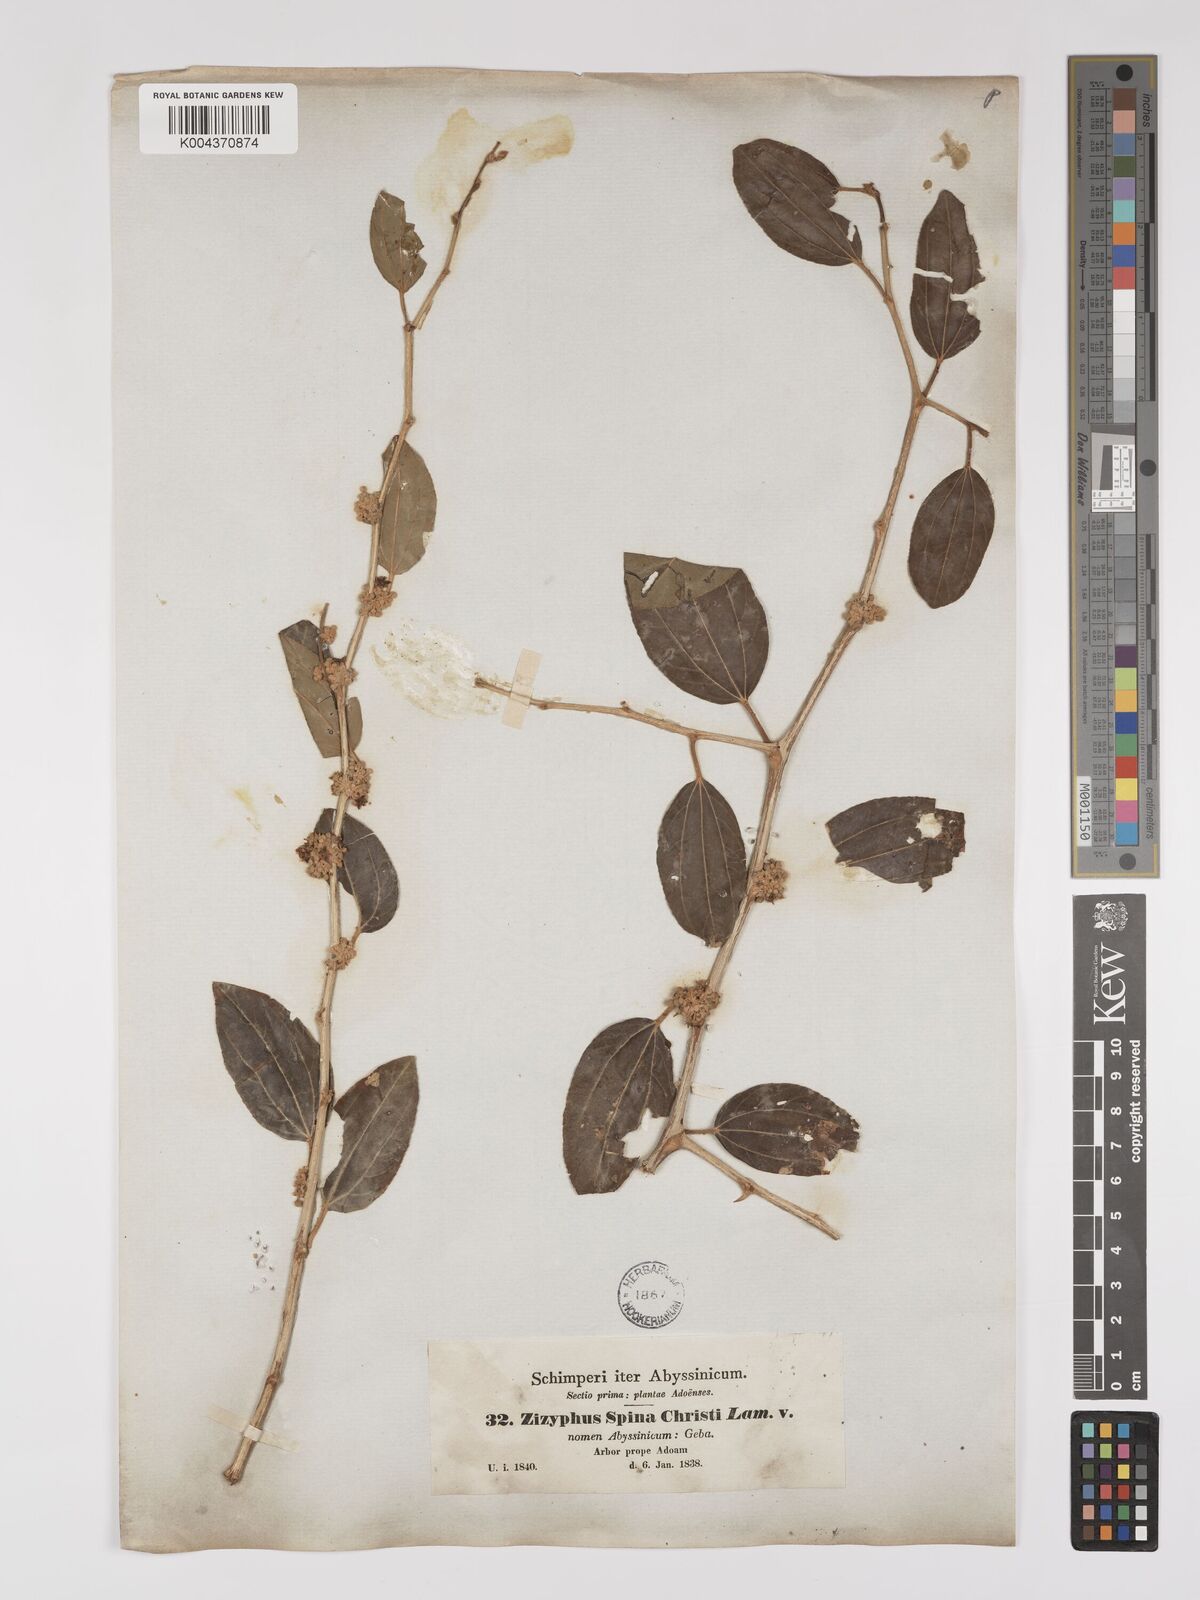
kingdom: Plantae
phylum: Tracheophyta
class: Magnoliopsida
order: Rosales
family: Rhamnaceae
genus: Ziziphus
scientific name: Ziziphus spina-christi
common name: Syrian christ-thorn
